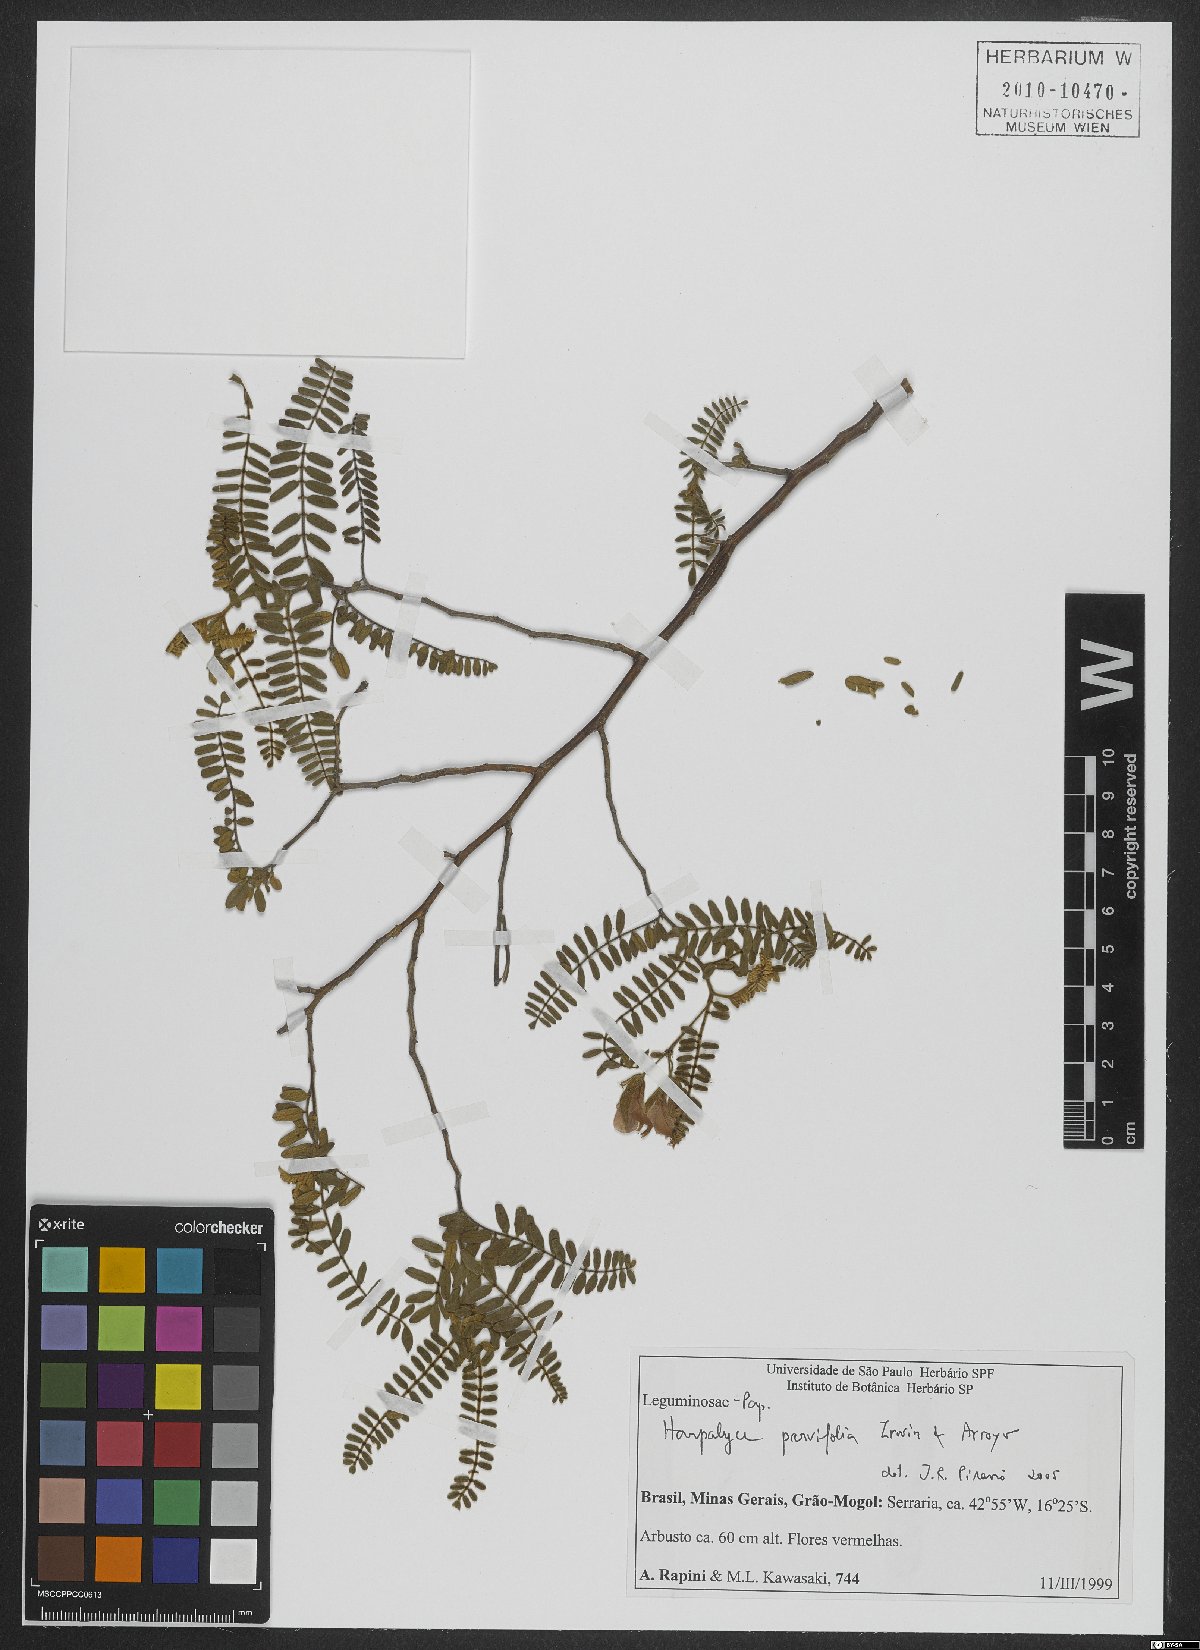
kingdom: Plantae
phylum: Tracheophyta
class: Magnoliopsida
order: Fabales
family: Fabaceae
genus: Harpalyce
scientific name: Harpalyce parvifolia
